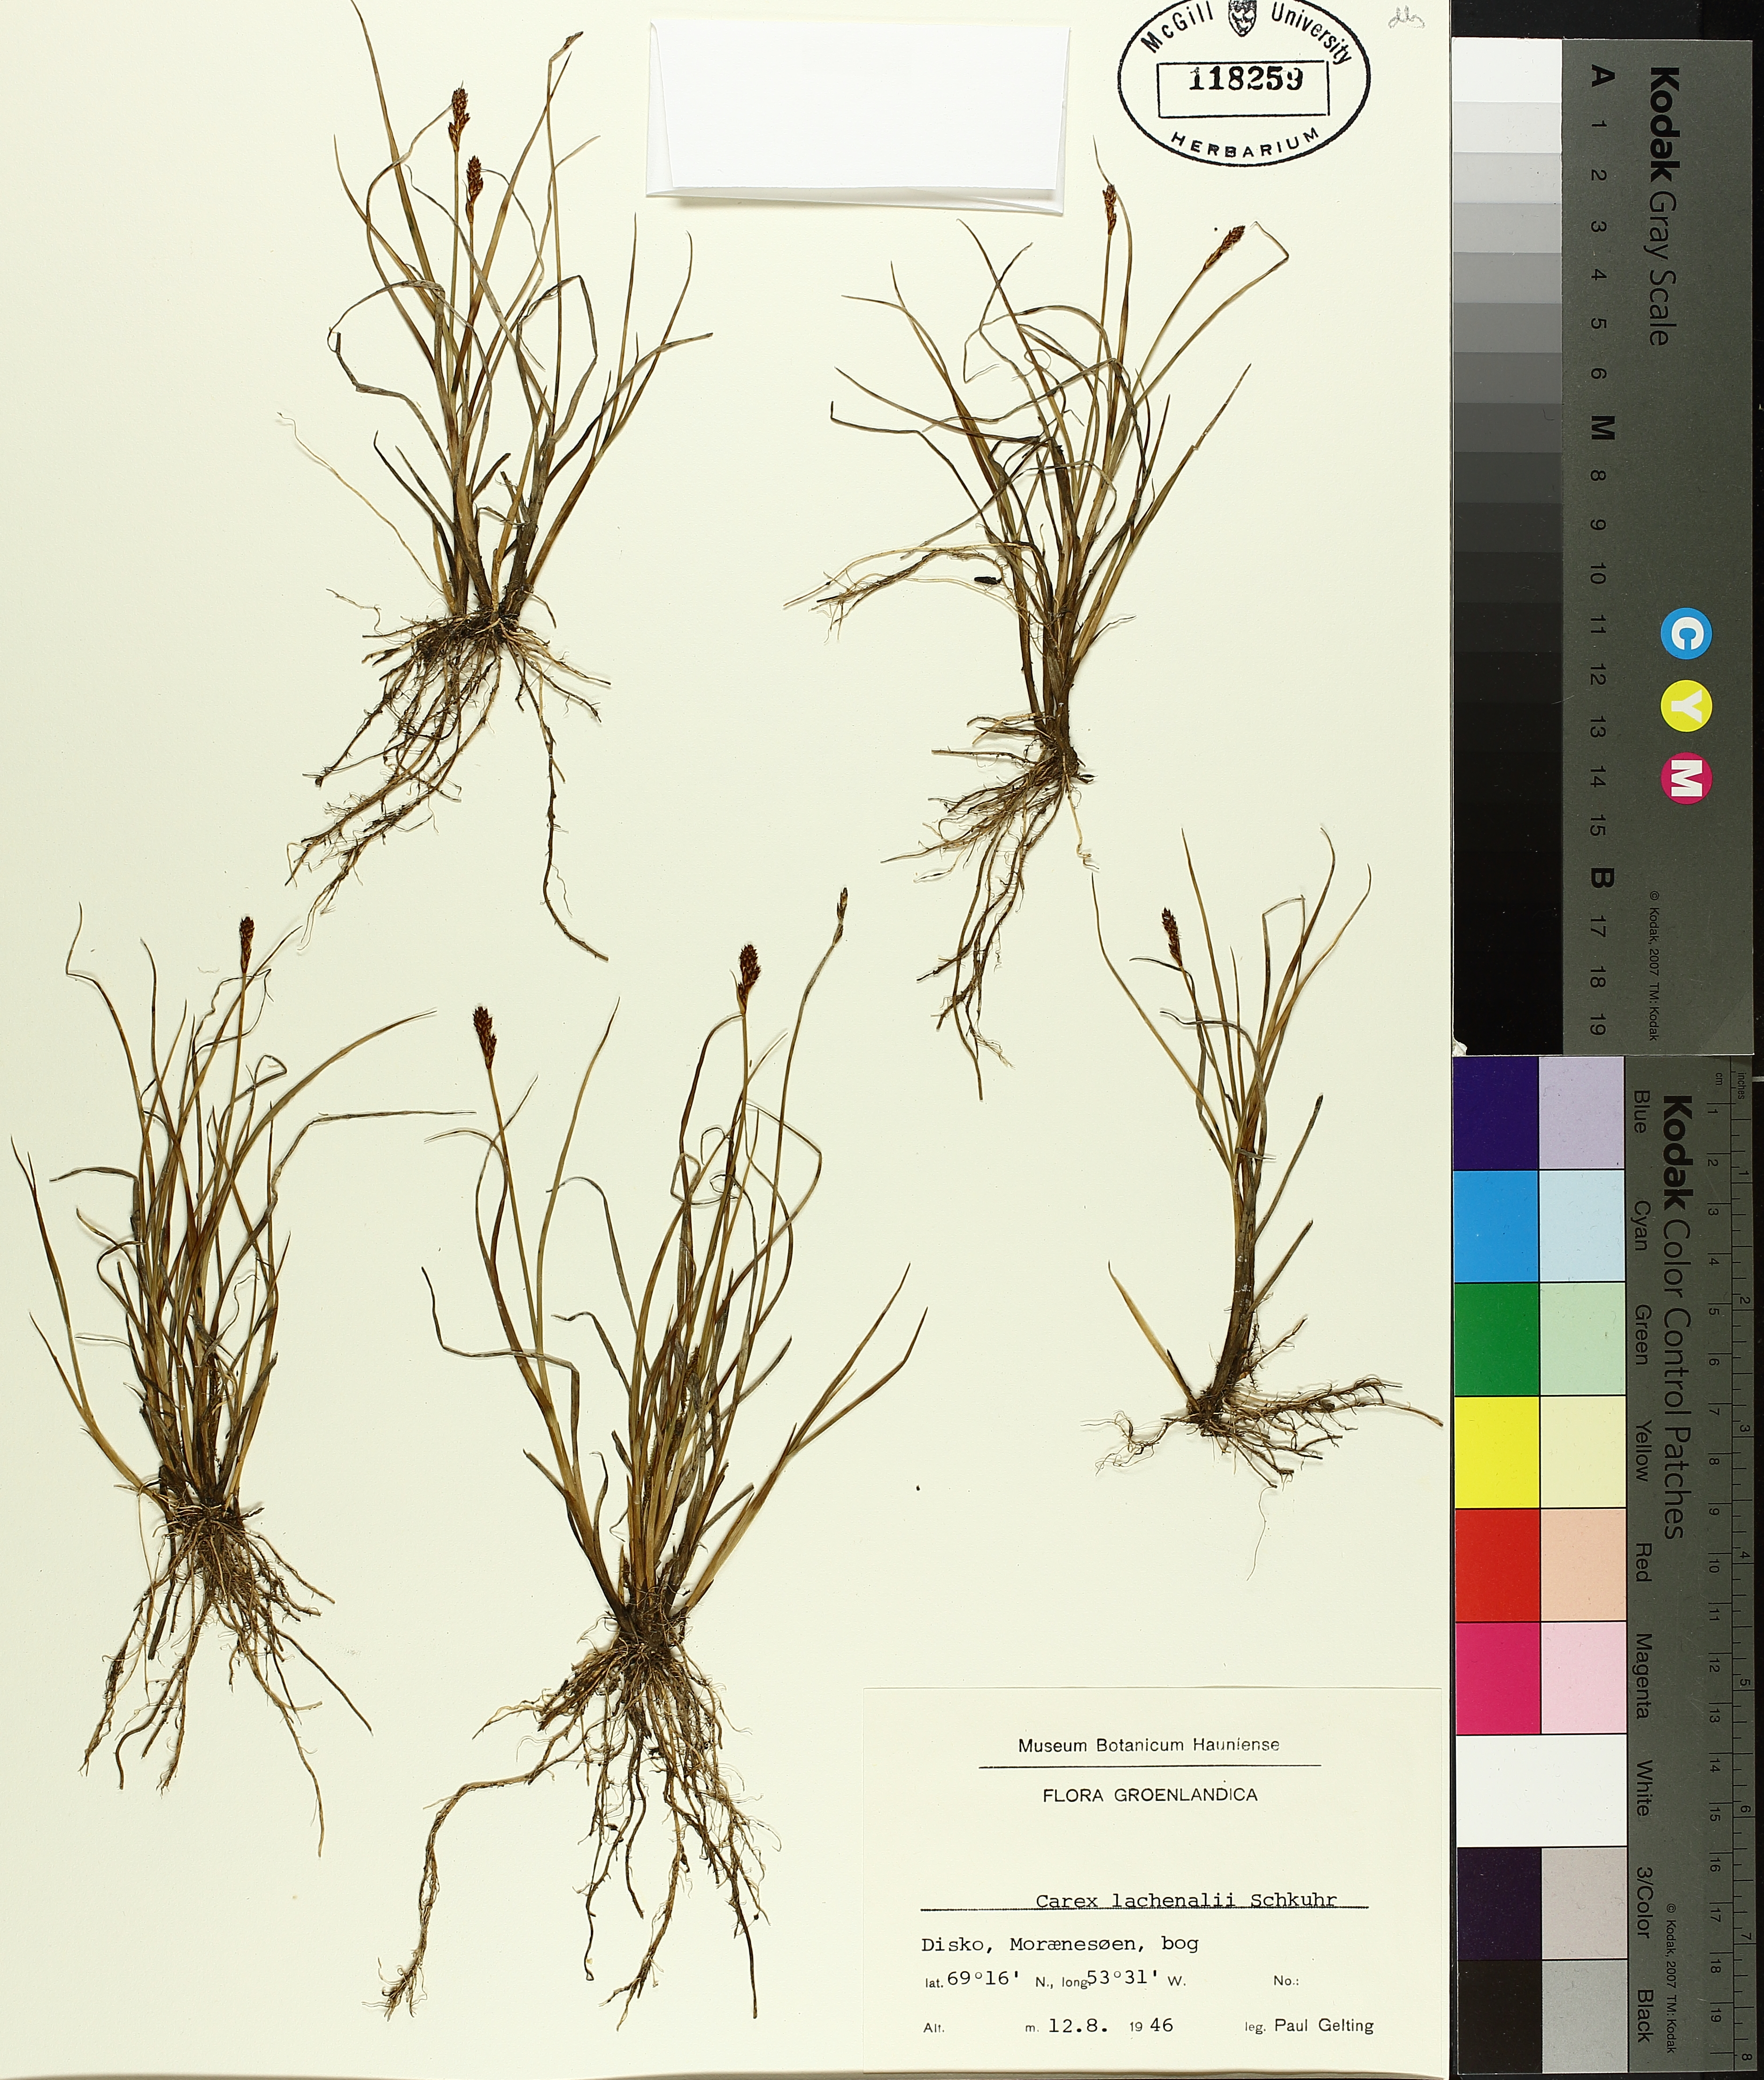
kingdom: Plantae
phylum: Tracheophyta
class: Liliopsida
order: Poales
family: Cyperaceae
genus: Carex
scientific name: Carex lachenalii
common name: Hare's-foot sedge
